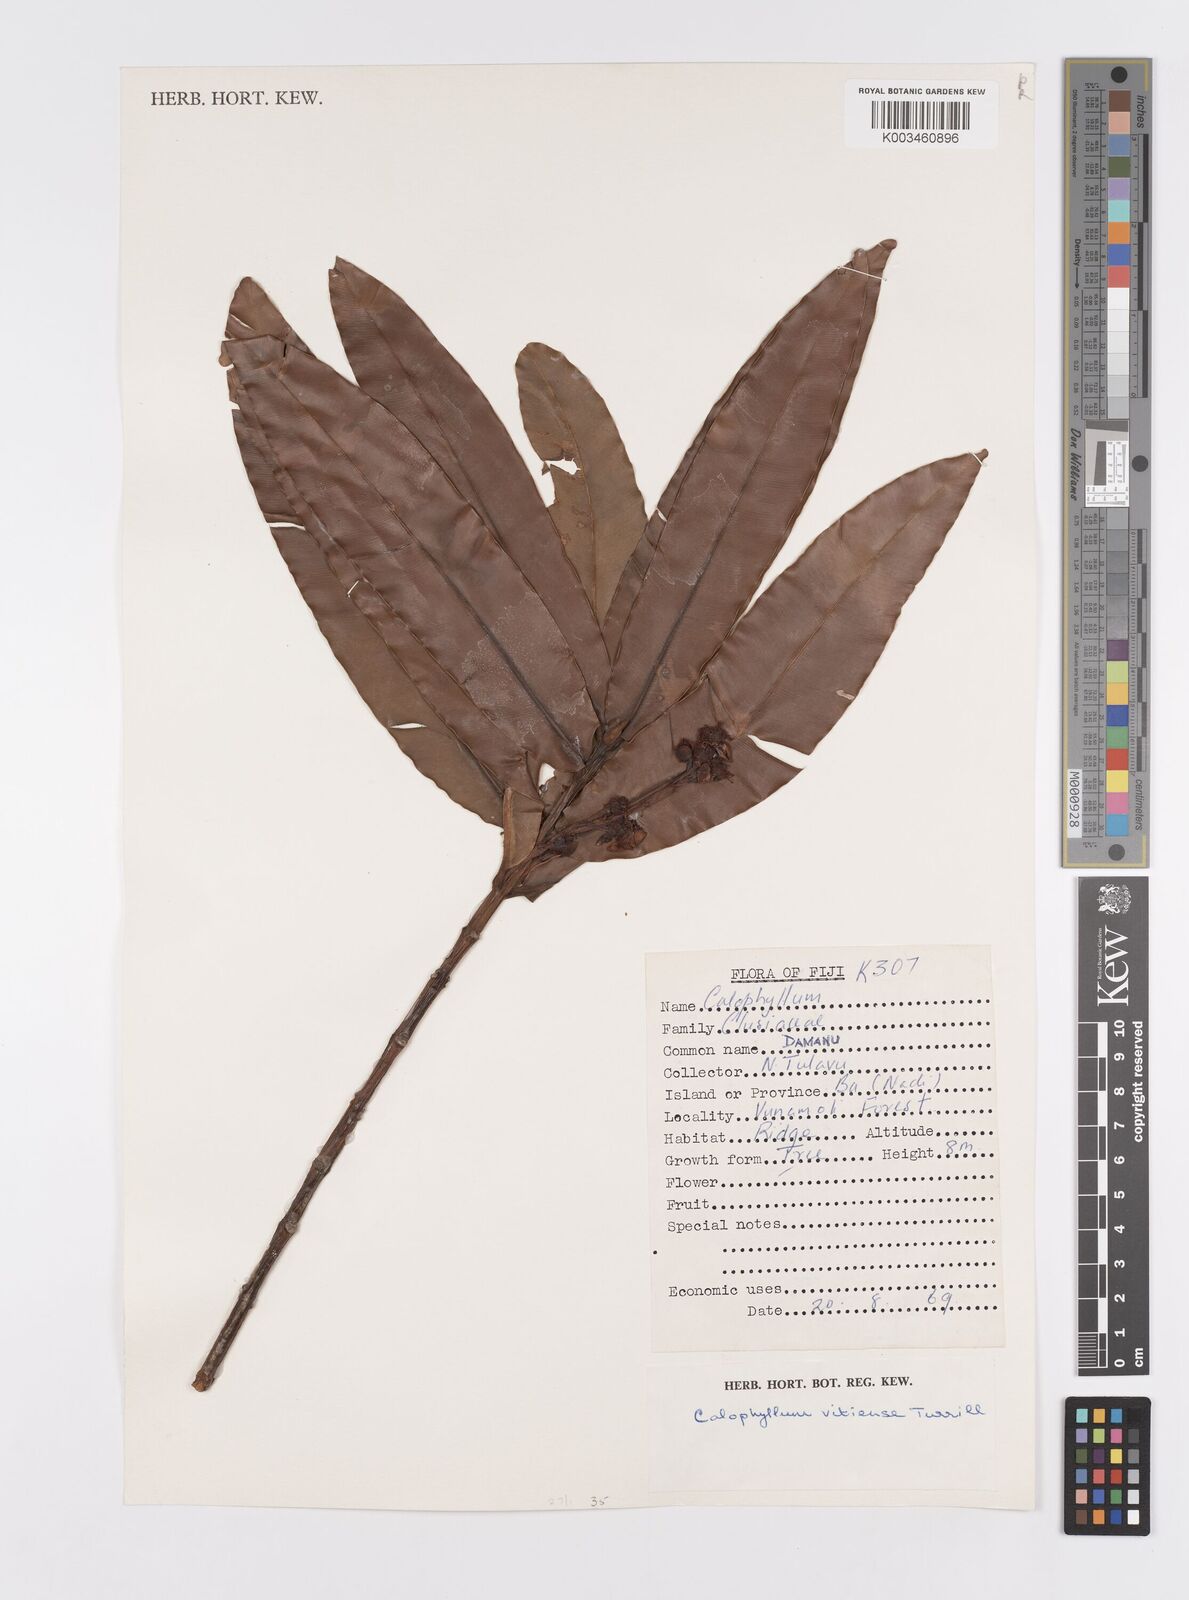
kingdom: Plantae
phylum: Tracheophyta
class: Magnoliopsida
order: Malpighiales
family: Calophyllaceae
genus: Calophyllum
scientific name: Calophyllum vitiense
